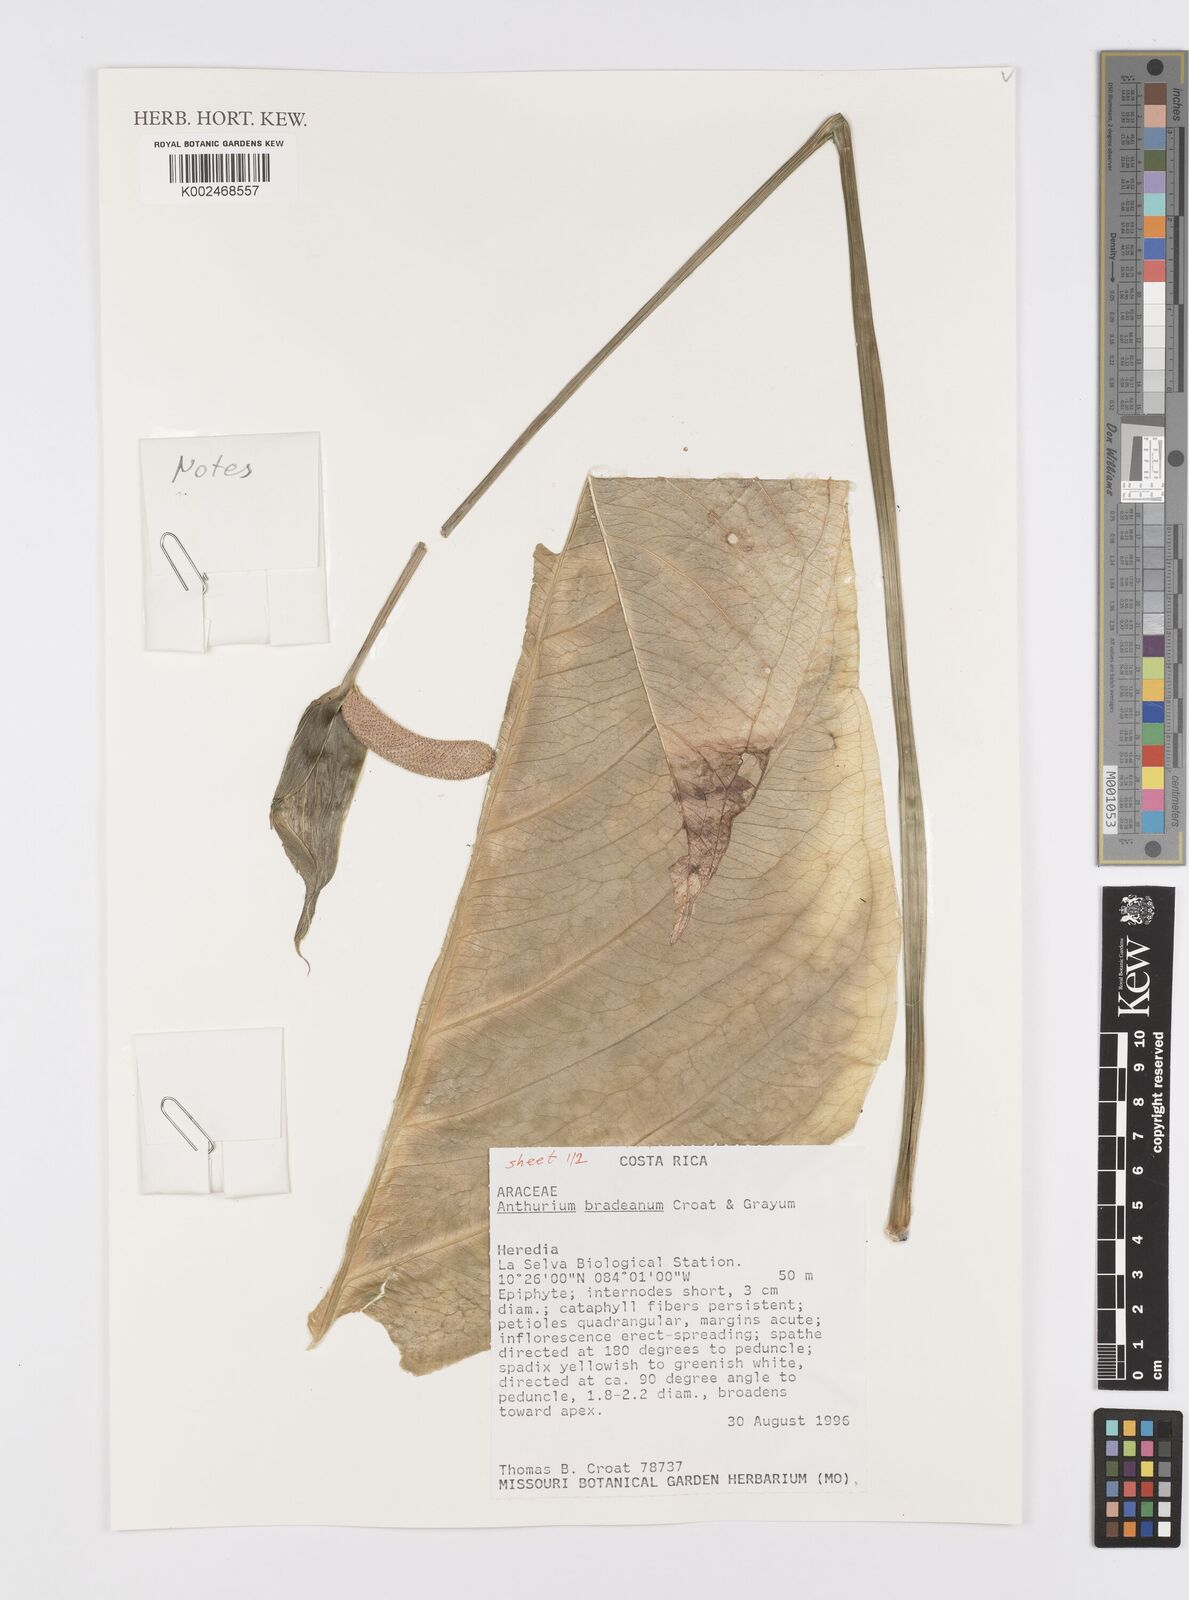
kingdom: Plantae
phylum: Tracheophyta
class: Liliopsida
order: Alismatales
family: Araceae
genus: Anthurium
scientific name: Anthurium bradeanum
